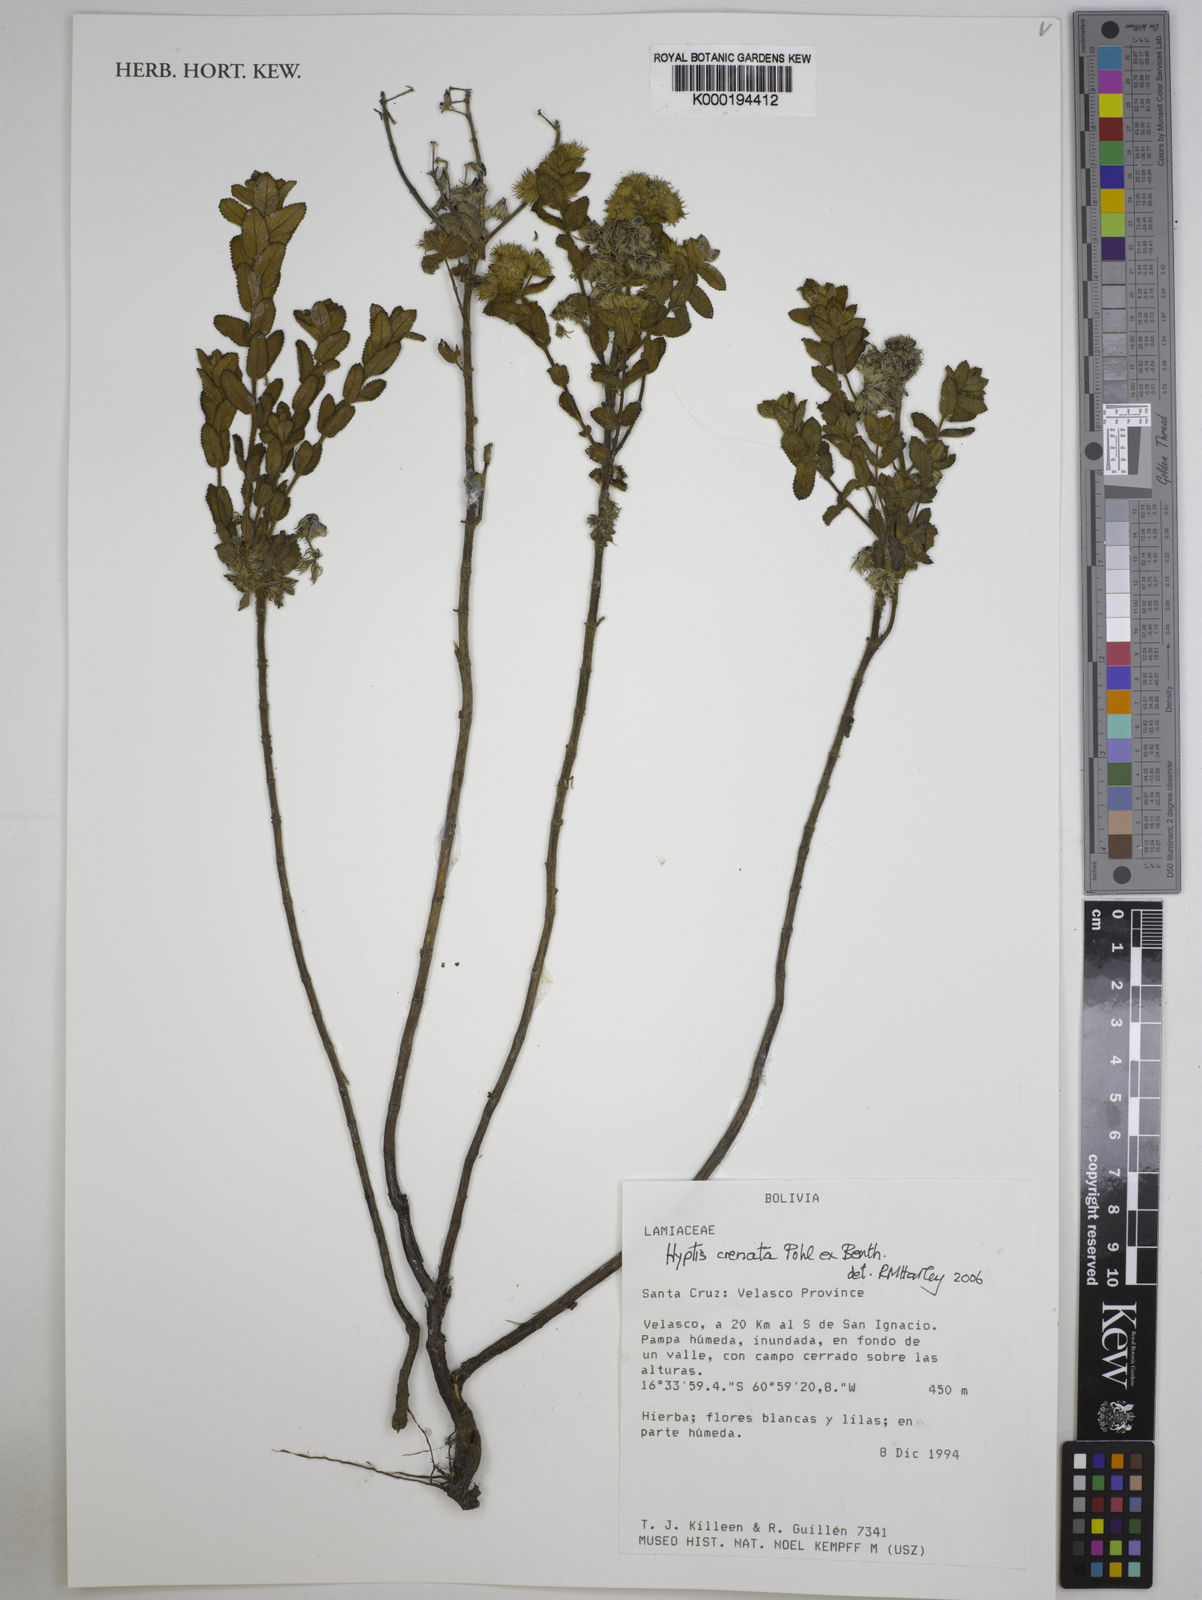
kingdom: Plantae
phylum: Tracheophyta
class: Magnoliopsida
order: Lamiales
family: Lamiaceae
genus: Hyptis
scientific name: Hyptis crenata
